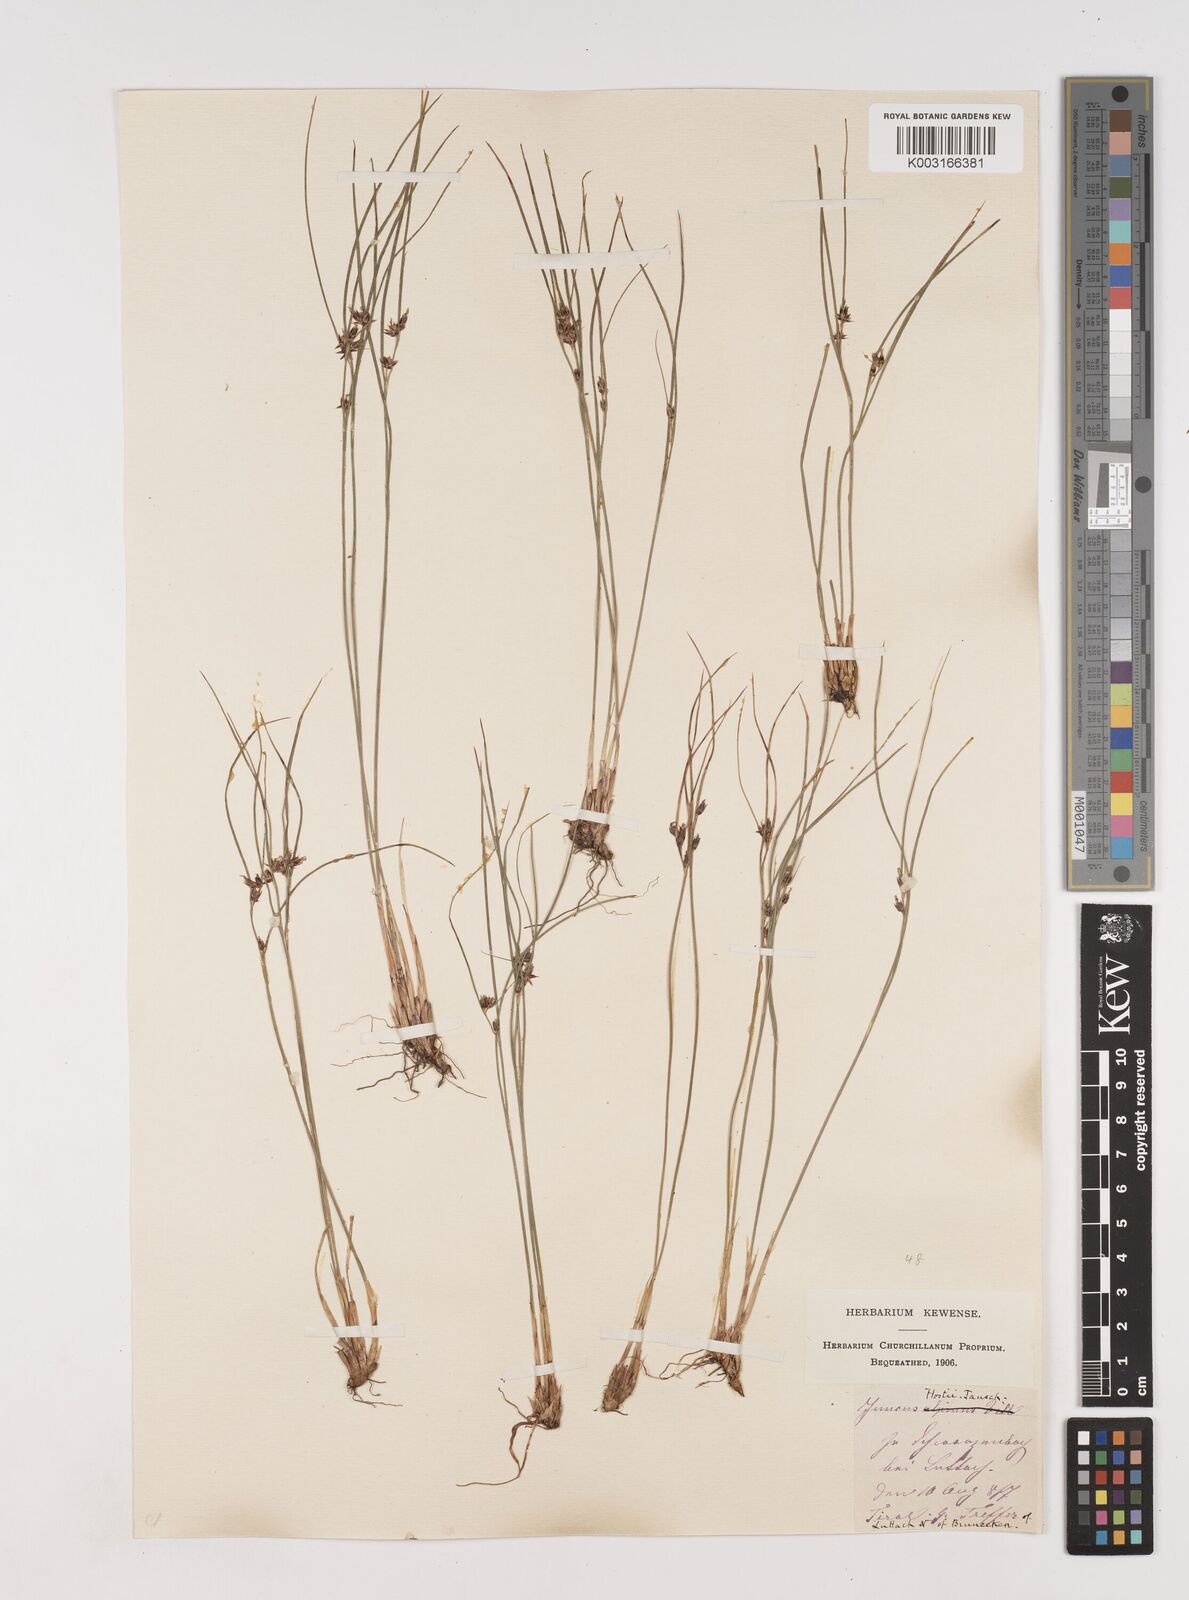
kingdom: Plantae
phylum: Tracheophyta
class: Liliopsida
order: Poales
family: Juncaceae
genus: Oreojuncus
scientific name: Oreojuncus trifidus
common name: Highland rush
